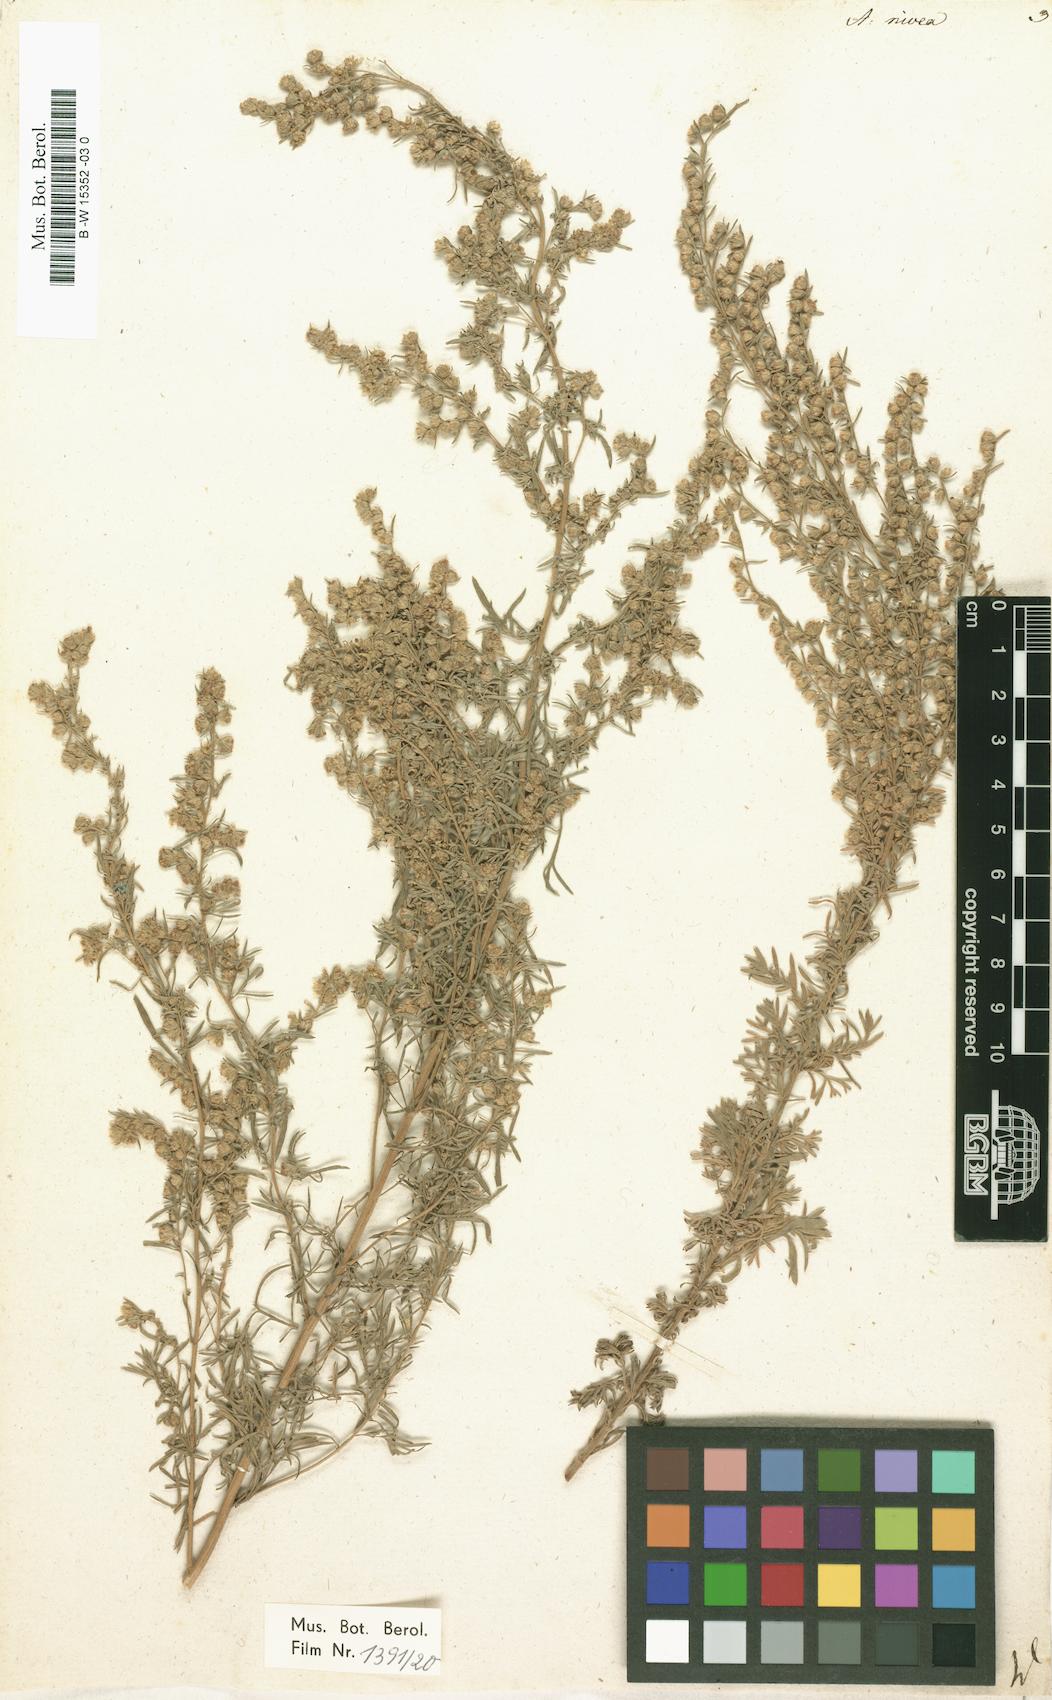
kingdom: Plantae
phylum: Tracheophyta
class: Magnoliopsida
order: Asterales
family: Asteraceae
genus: Artemisia
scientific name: Artemisia austriaca
